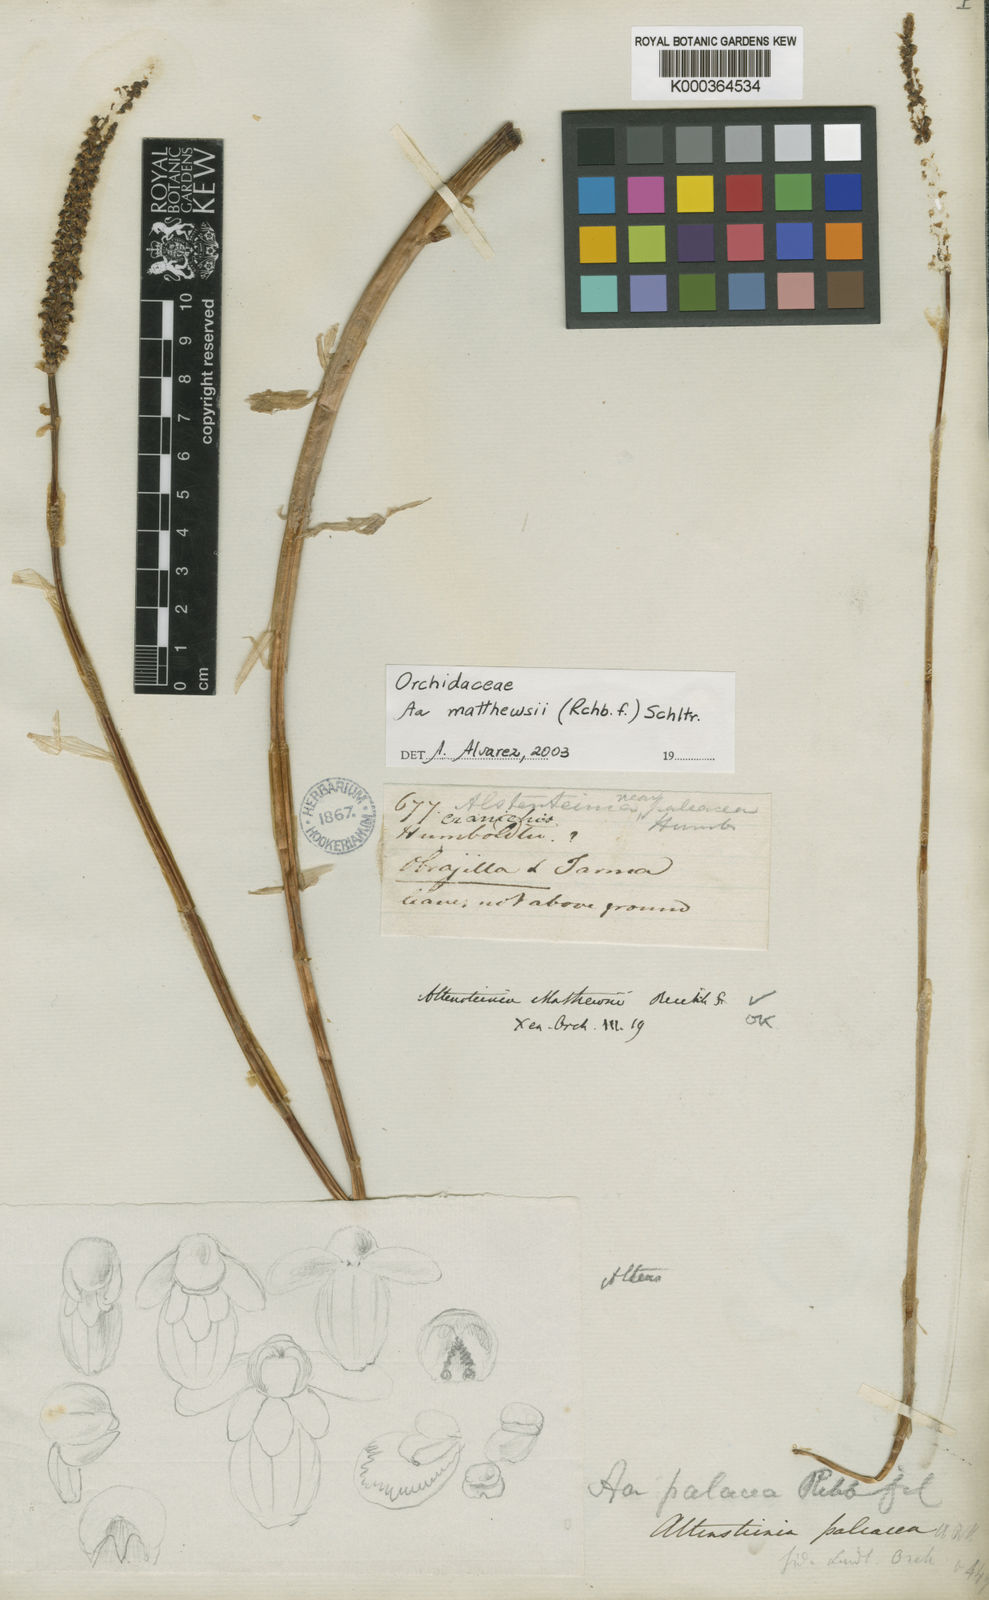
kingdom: Plantae
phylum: Tracheophyta
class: Liliopsida
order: Asparagales
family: Orchidaceae
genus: Aa
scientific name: Aa matthewsii
